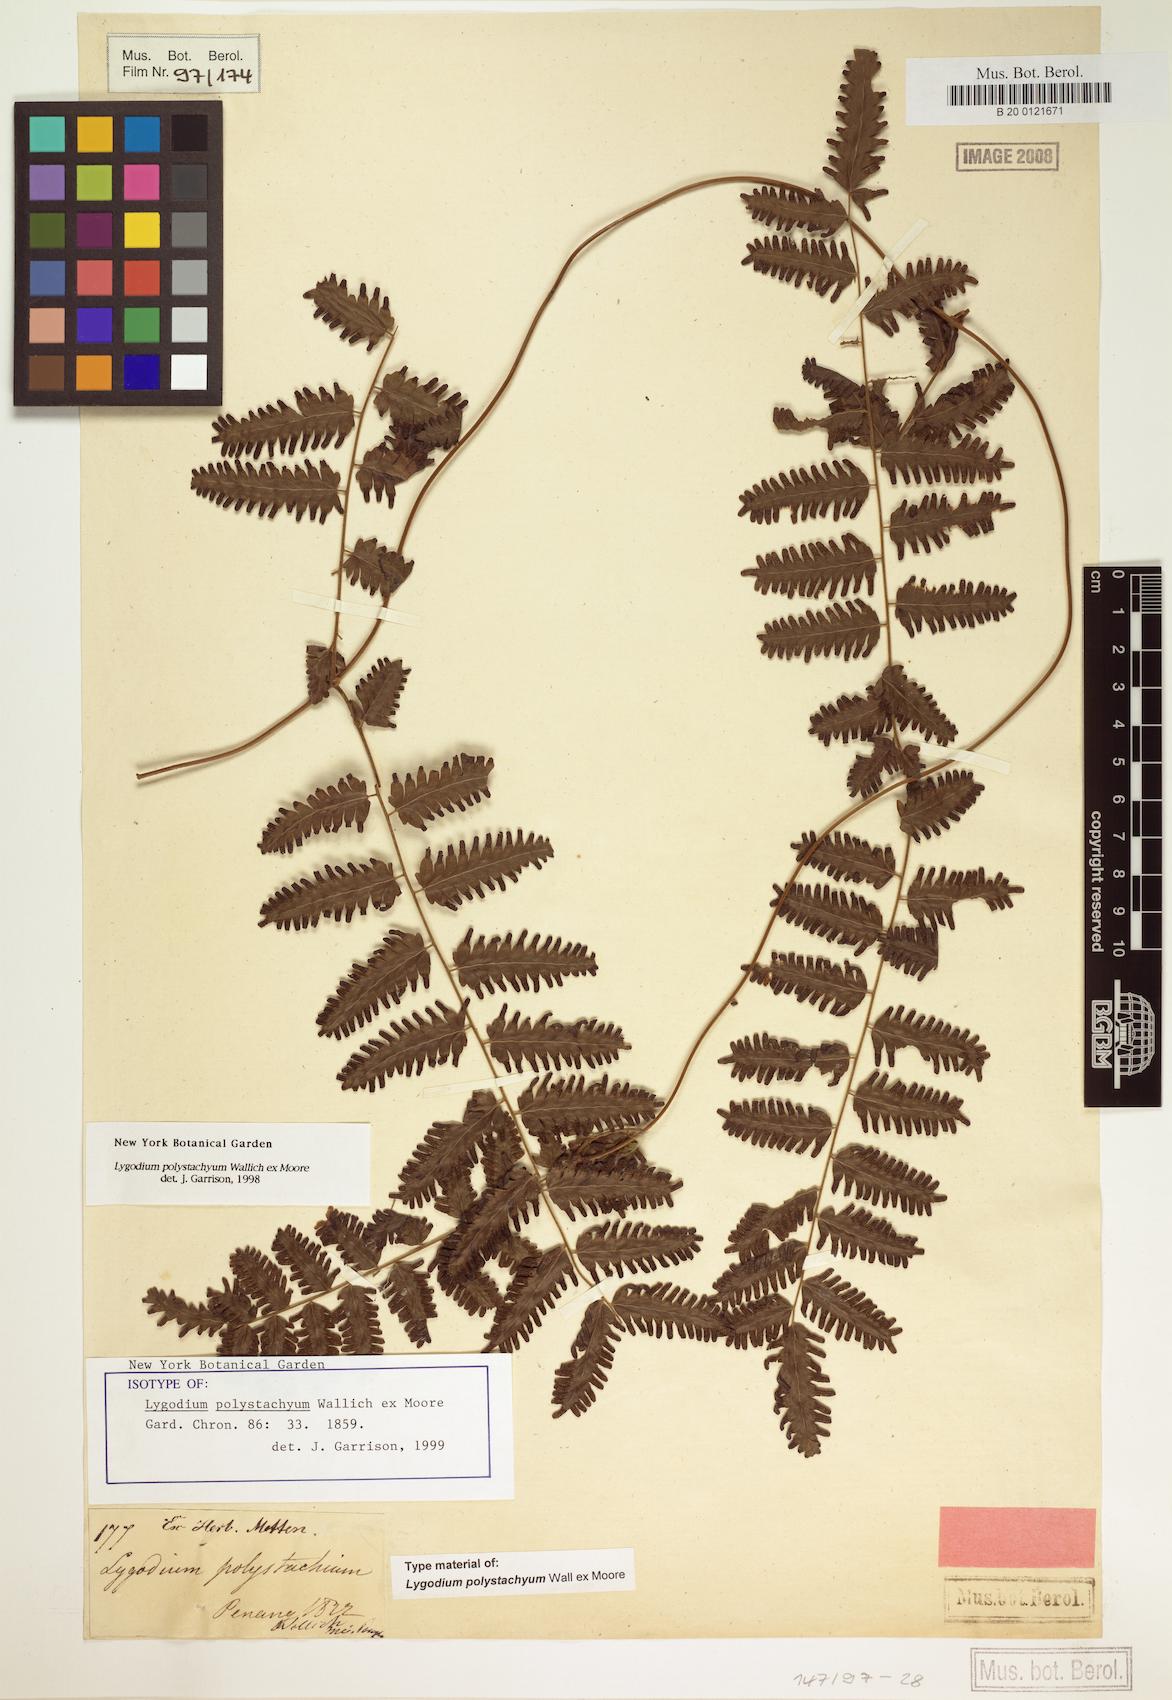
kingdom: Plantae
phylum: Tracheophyta
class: Polypodiopsida
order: Schizaeales
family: Lygodiaceae
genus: Lygodium
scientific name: Lygodium polystachyum
